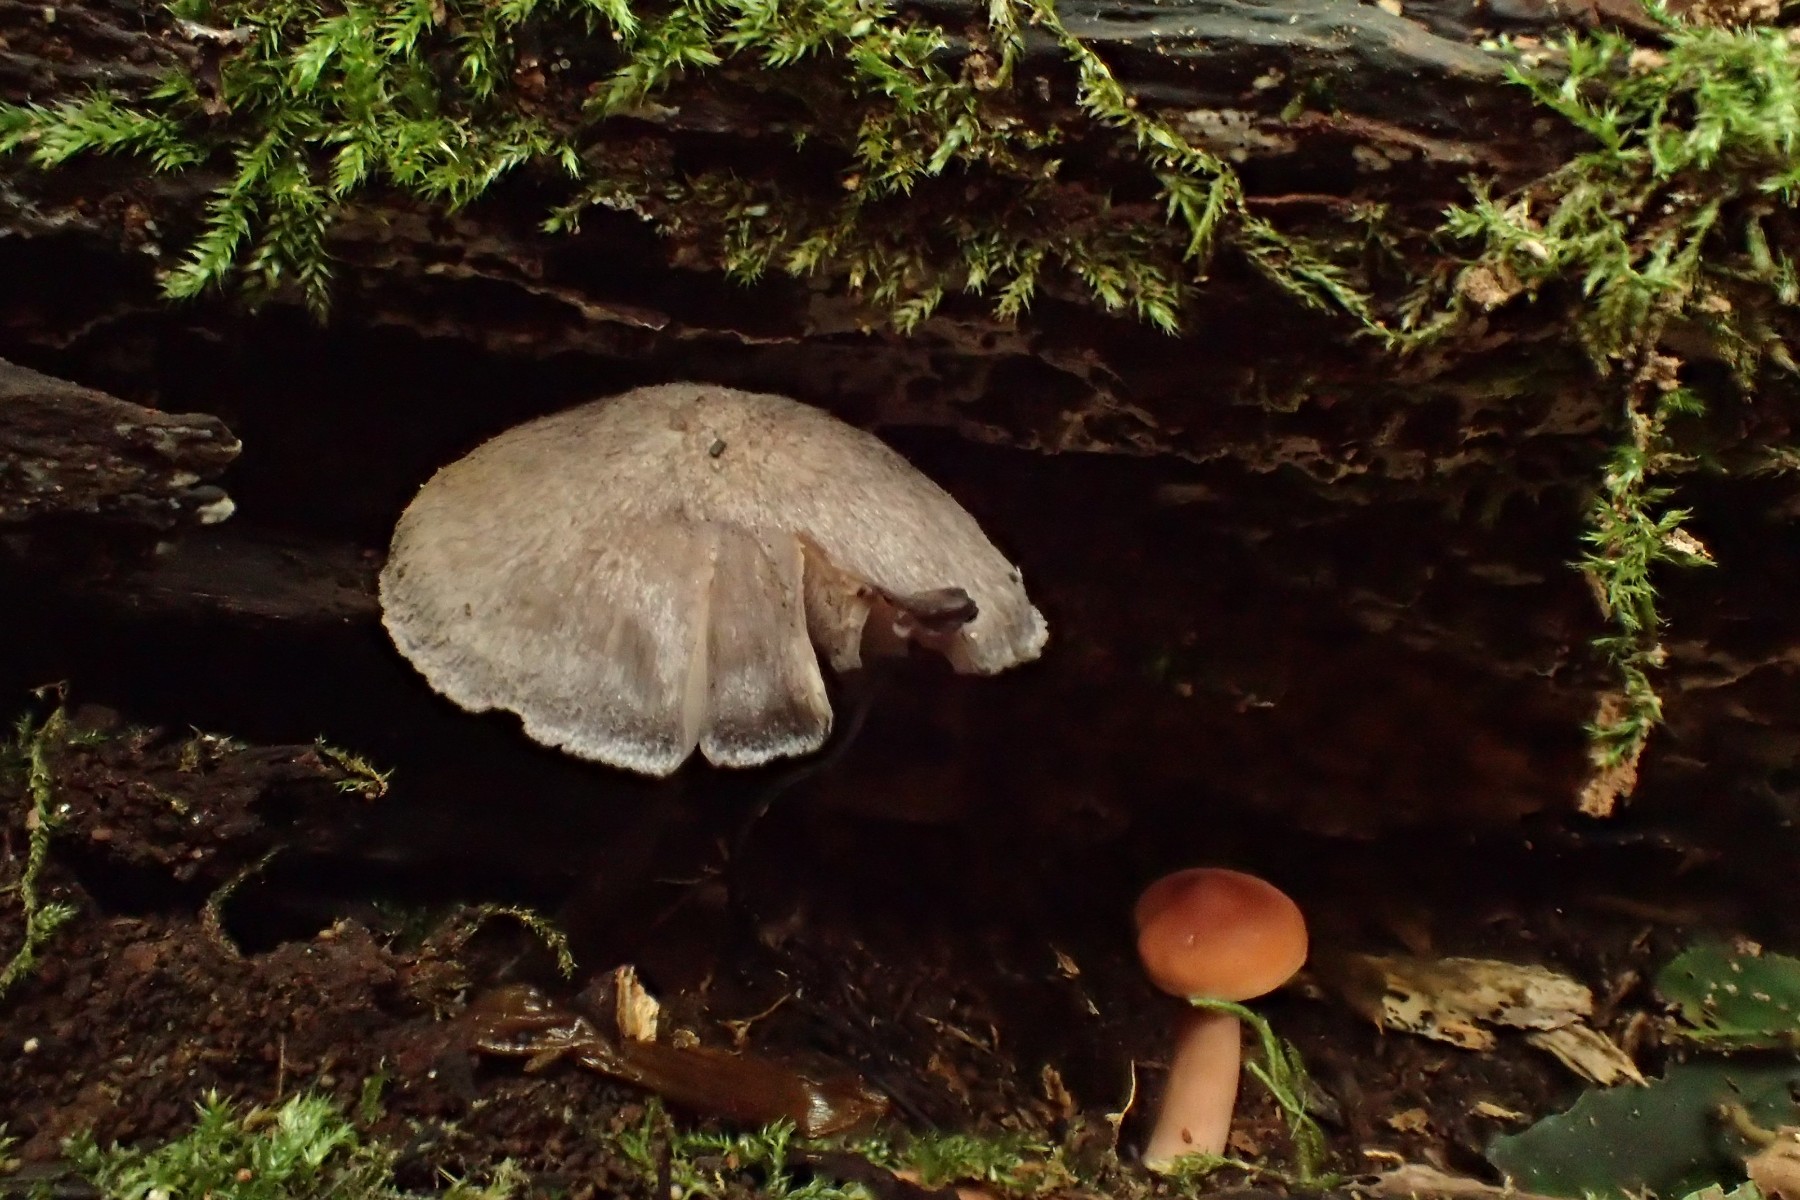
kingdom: Fungi
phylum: Basidiomycota
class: Agaricomycetes
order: Agaricales
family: Entolomataceae
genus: Entoloma
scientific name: Entoloma euchroum
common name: smuk rødblad
